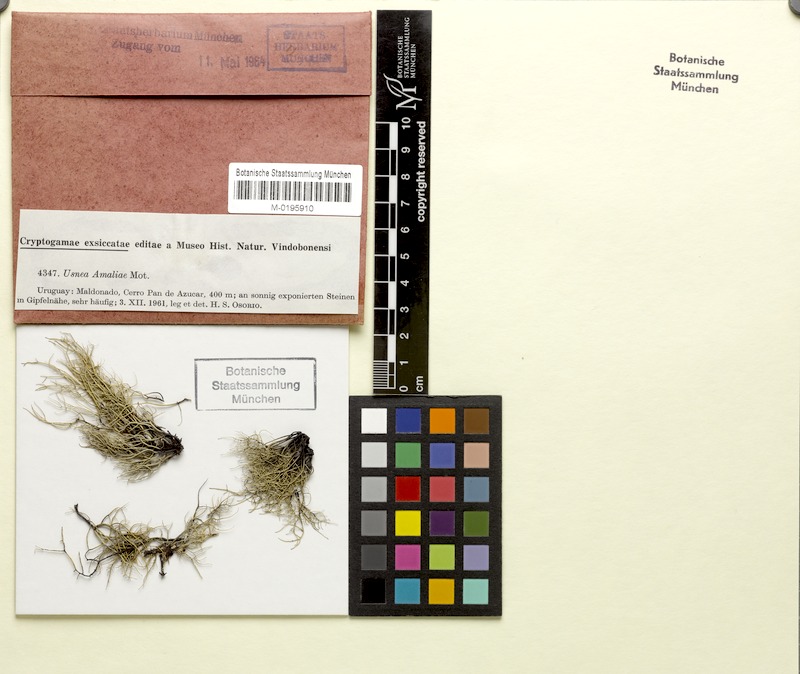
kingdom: Fungi
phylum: Ascomycota
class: Lecanoromycetes
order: Lecanorales
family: Parmeliaceae
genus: Usnea
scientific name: Usnea amaliae
